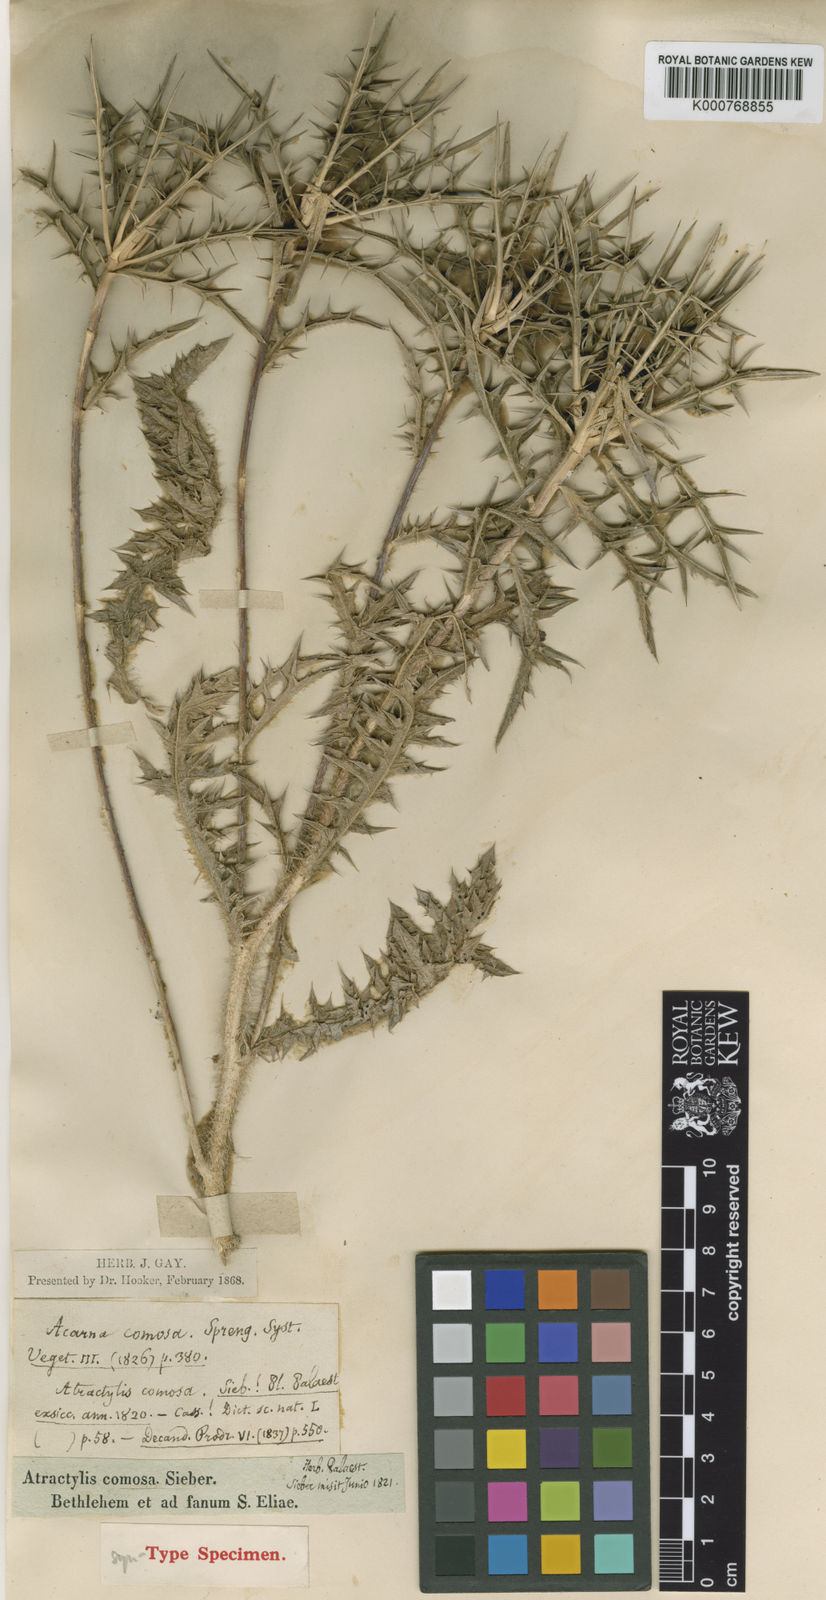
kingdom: Plantae
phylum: Tracheophyta
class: Magnoliopsida
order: Asterales
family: Asteraceae
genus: Chamaeleon
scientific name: Chamaeleon comosus
